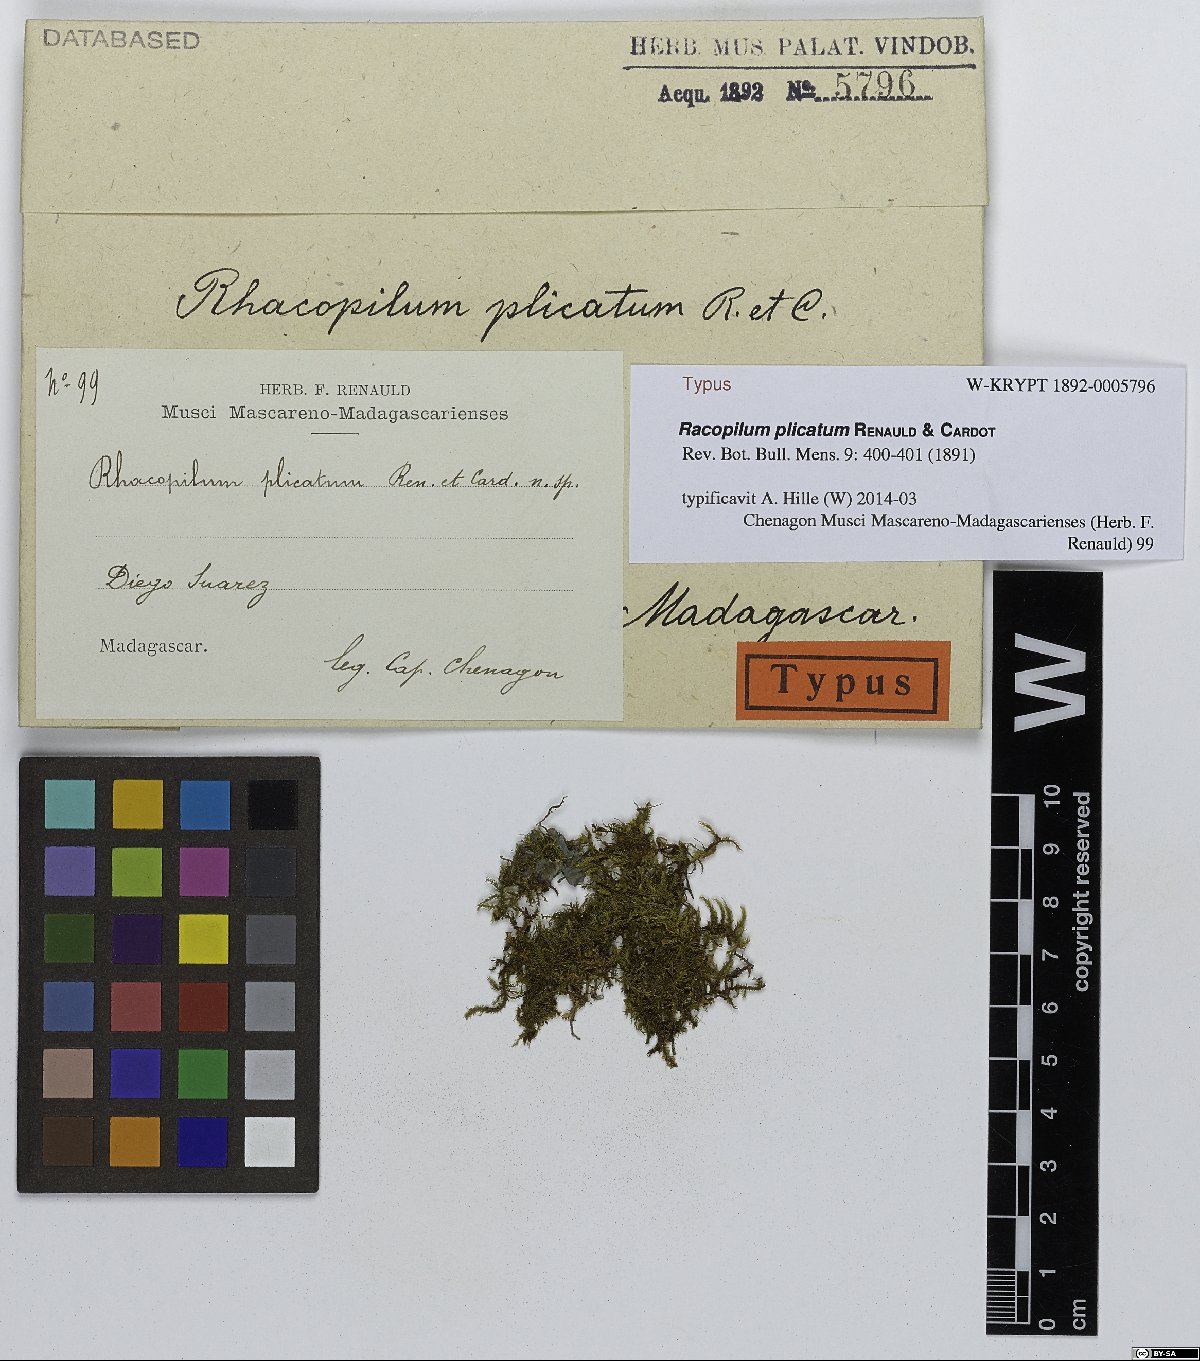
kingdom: Plantae
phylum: Bryophyta
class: Bryopsida
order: Hypnodendrales
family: Racopilaceae
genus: Racopilum
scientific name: Racopilum plicatum
